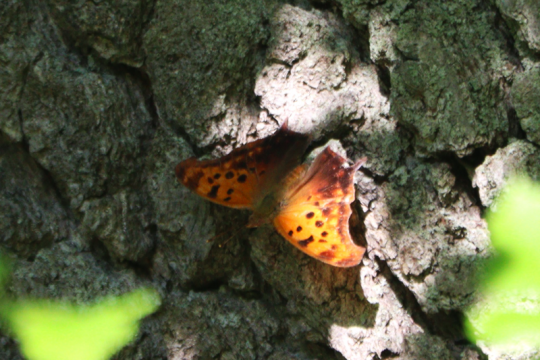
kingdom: Animalia
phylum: Arthropoda
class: Insecta
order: Lepidoptera
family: Nymphalidae
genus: Polygonia
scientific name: Polygonia interrogationis
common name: Question Mark
